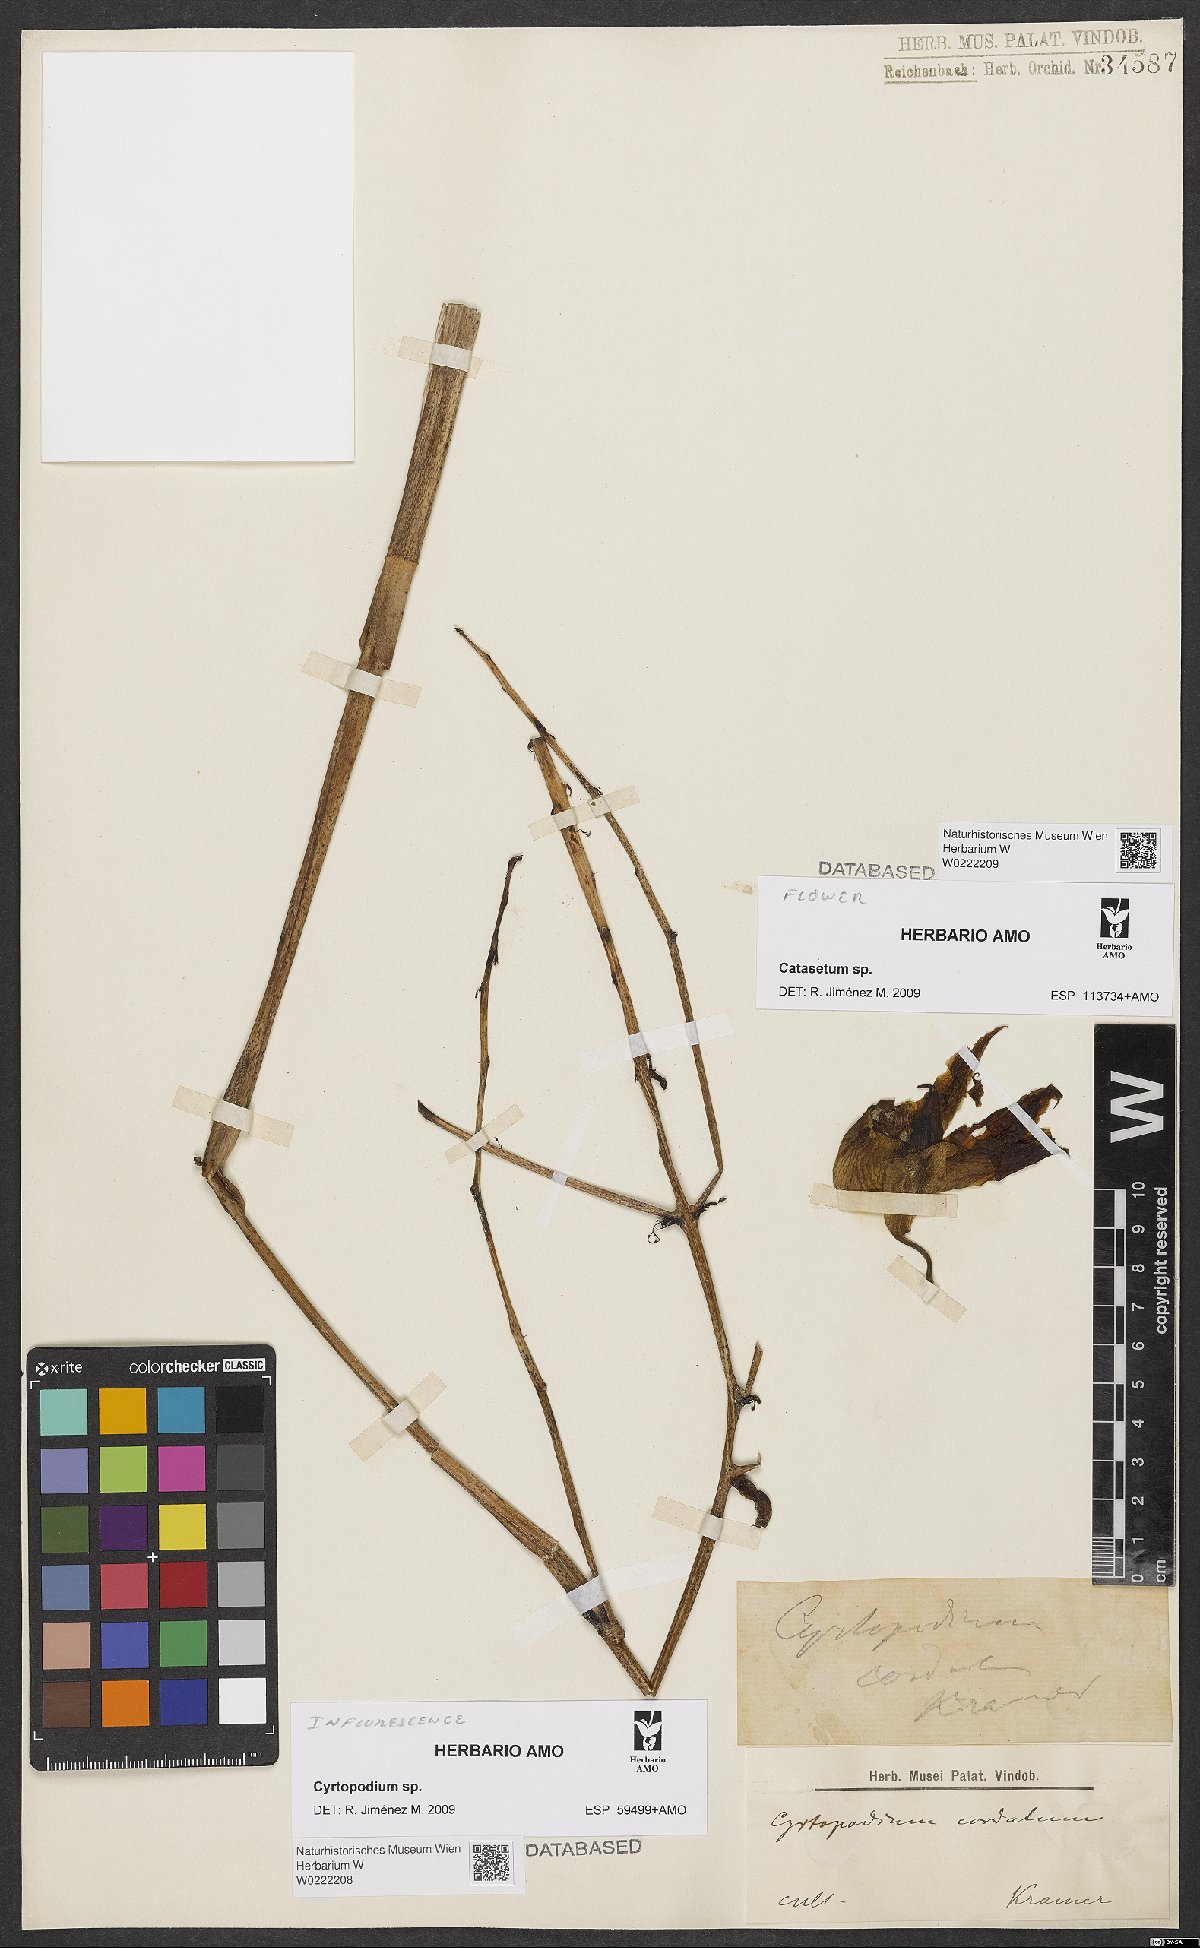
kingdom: Plantae
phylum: Tracheophyta
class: Liliopsida
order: Asparagales
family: Orchidaceae
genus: Cyrtopodium
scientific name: Cyrtopodium
